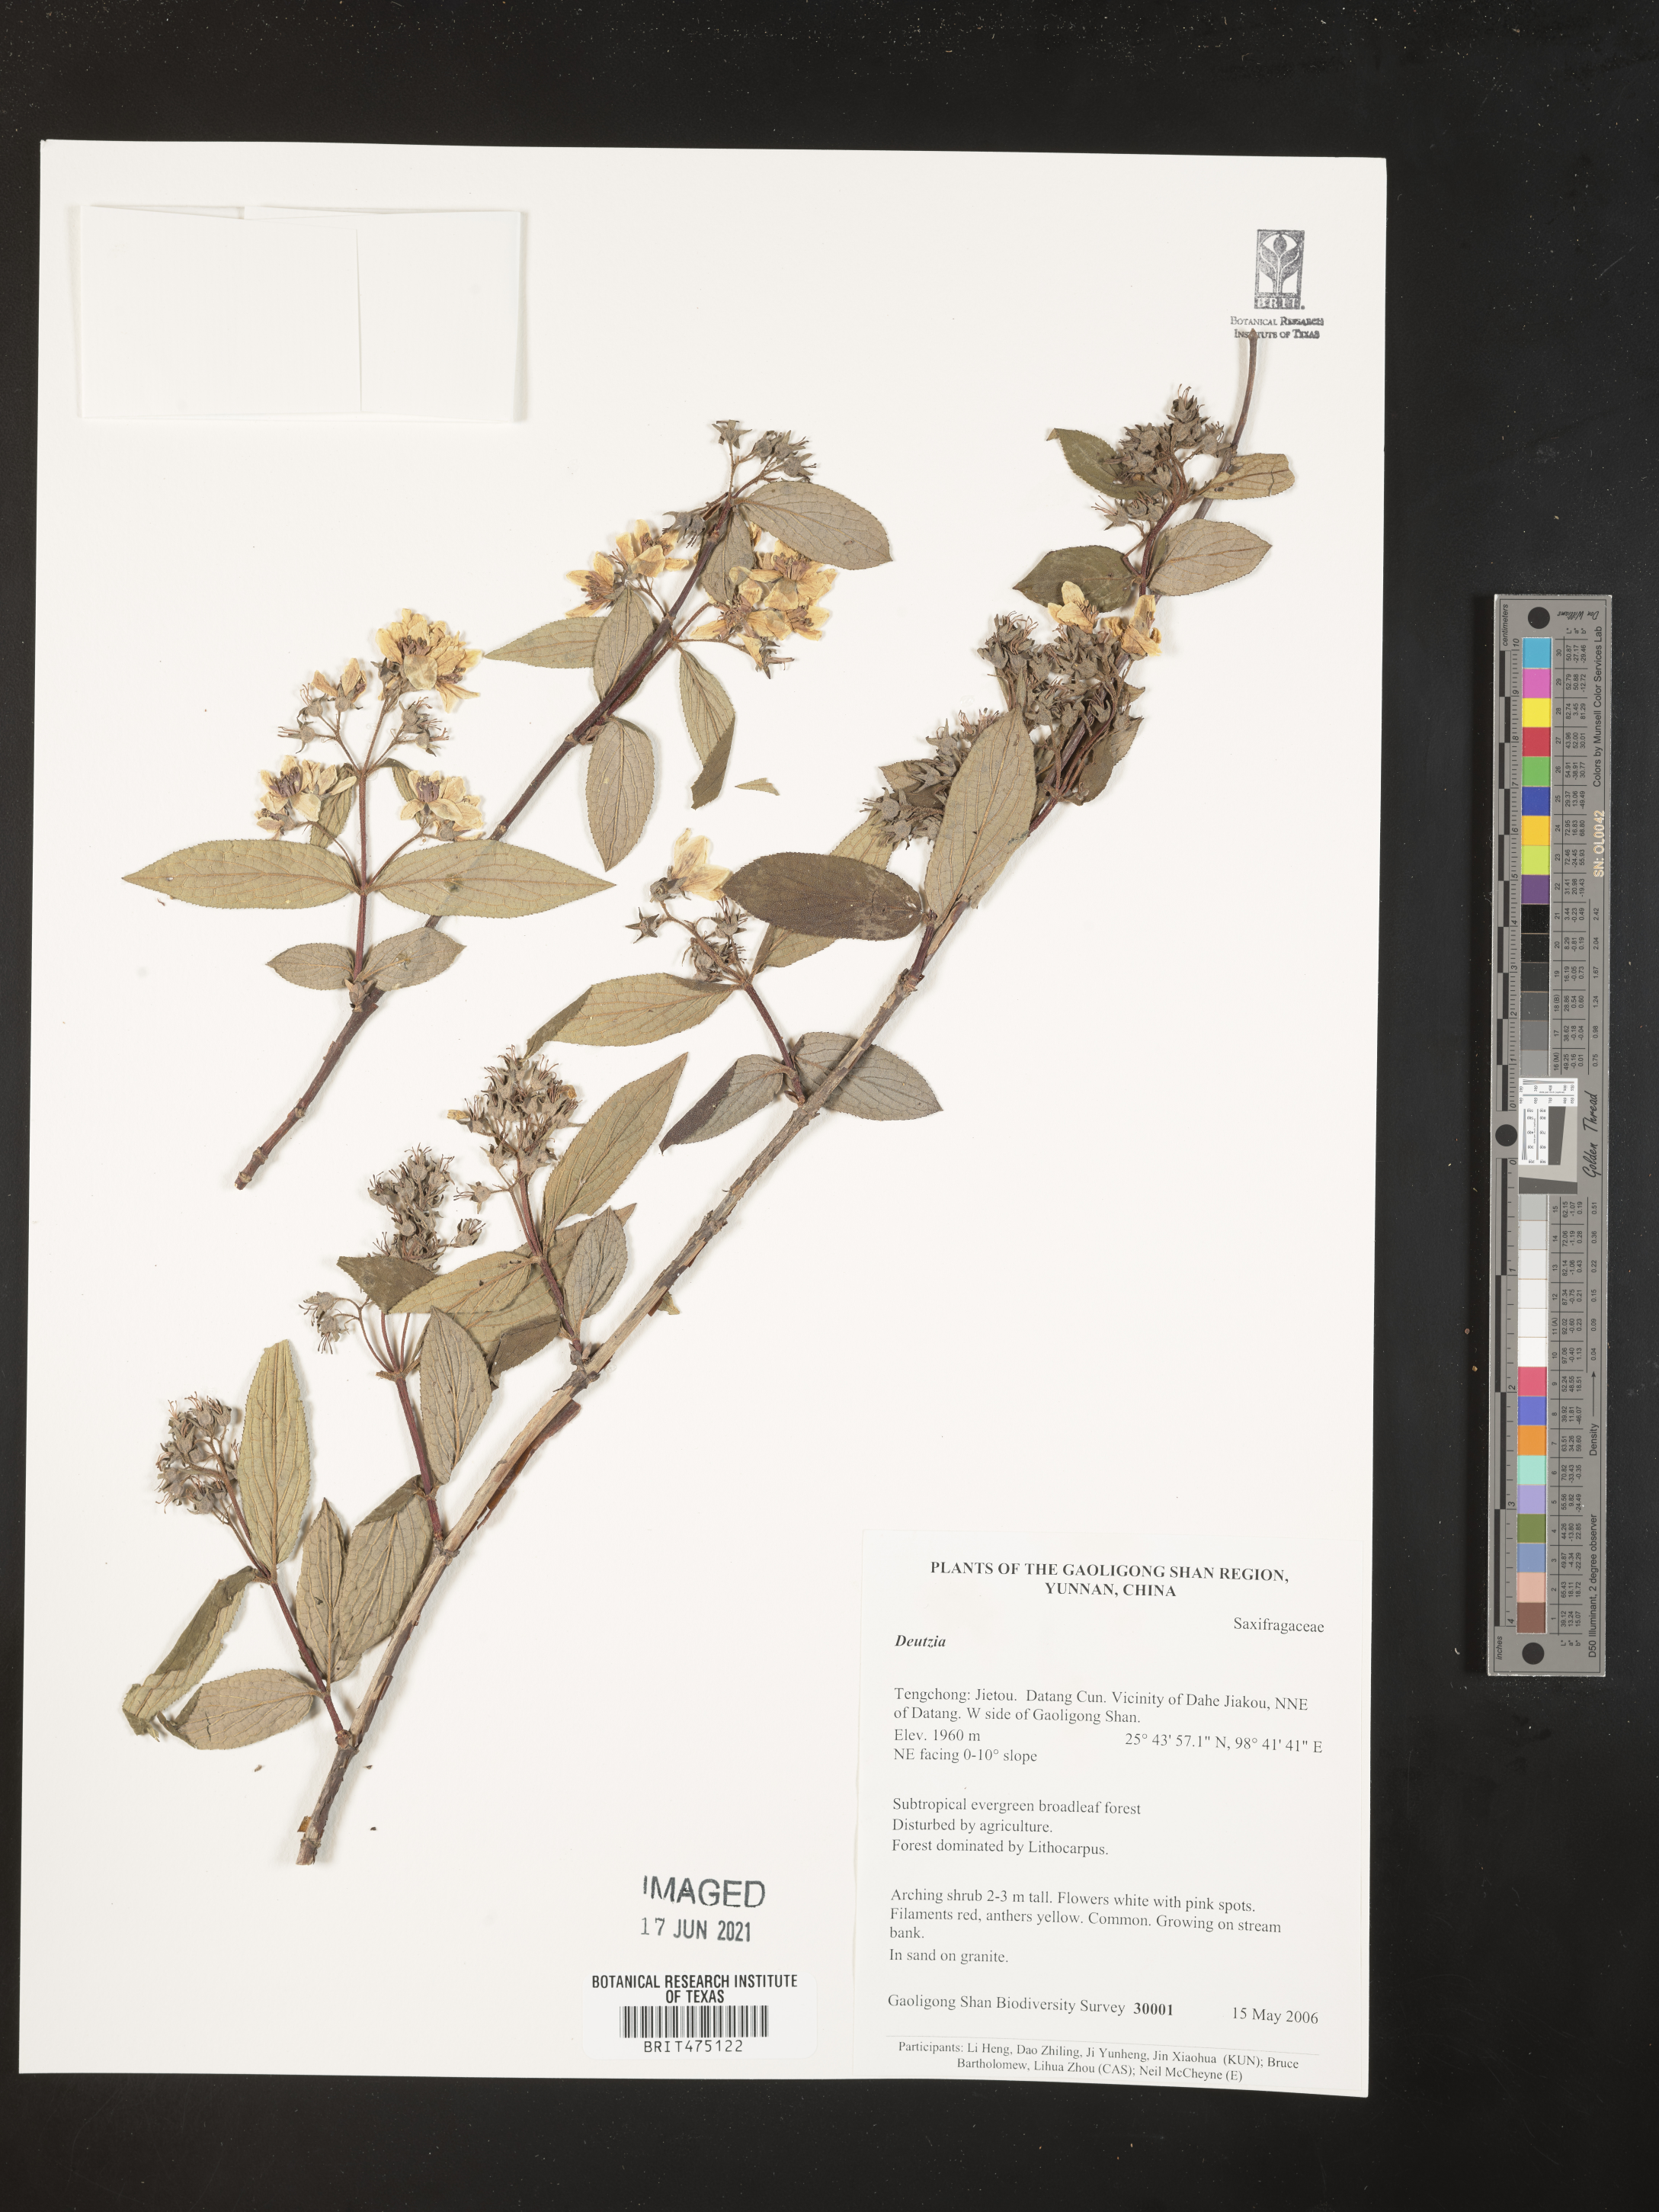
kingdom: Plantae
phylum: Tracheophyta
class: Magnoliopsida
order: Cornales
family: Hydrangeaceae
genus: Deutzia
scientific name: Deutzia
